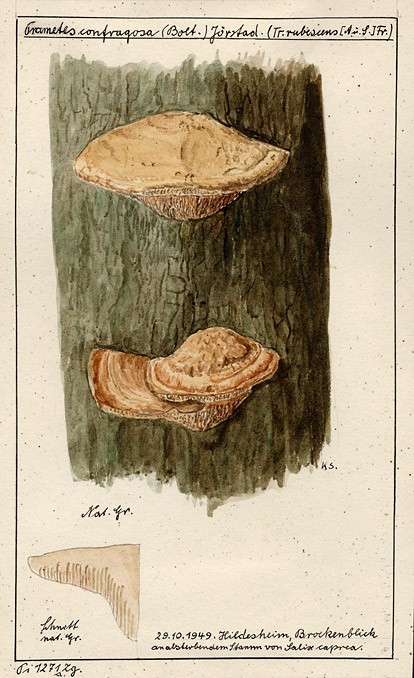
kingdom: Fungi
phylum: Basidiomycota
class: Agaricomycetes
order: Polyporales
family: Polyporaceae
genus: Daedaleopsis
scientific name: Daedaleopsis confragosa
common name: Blushing bracket
